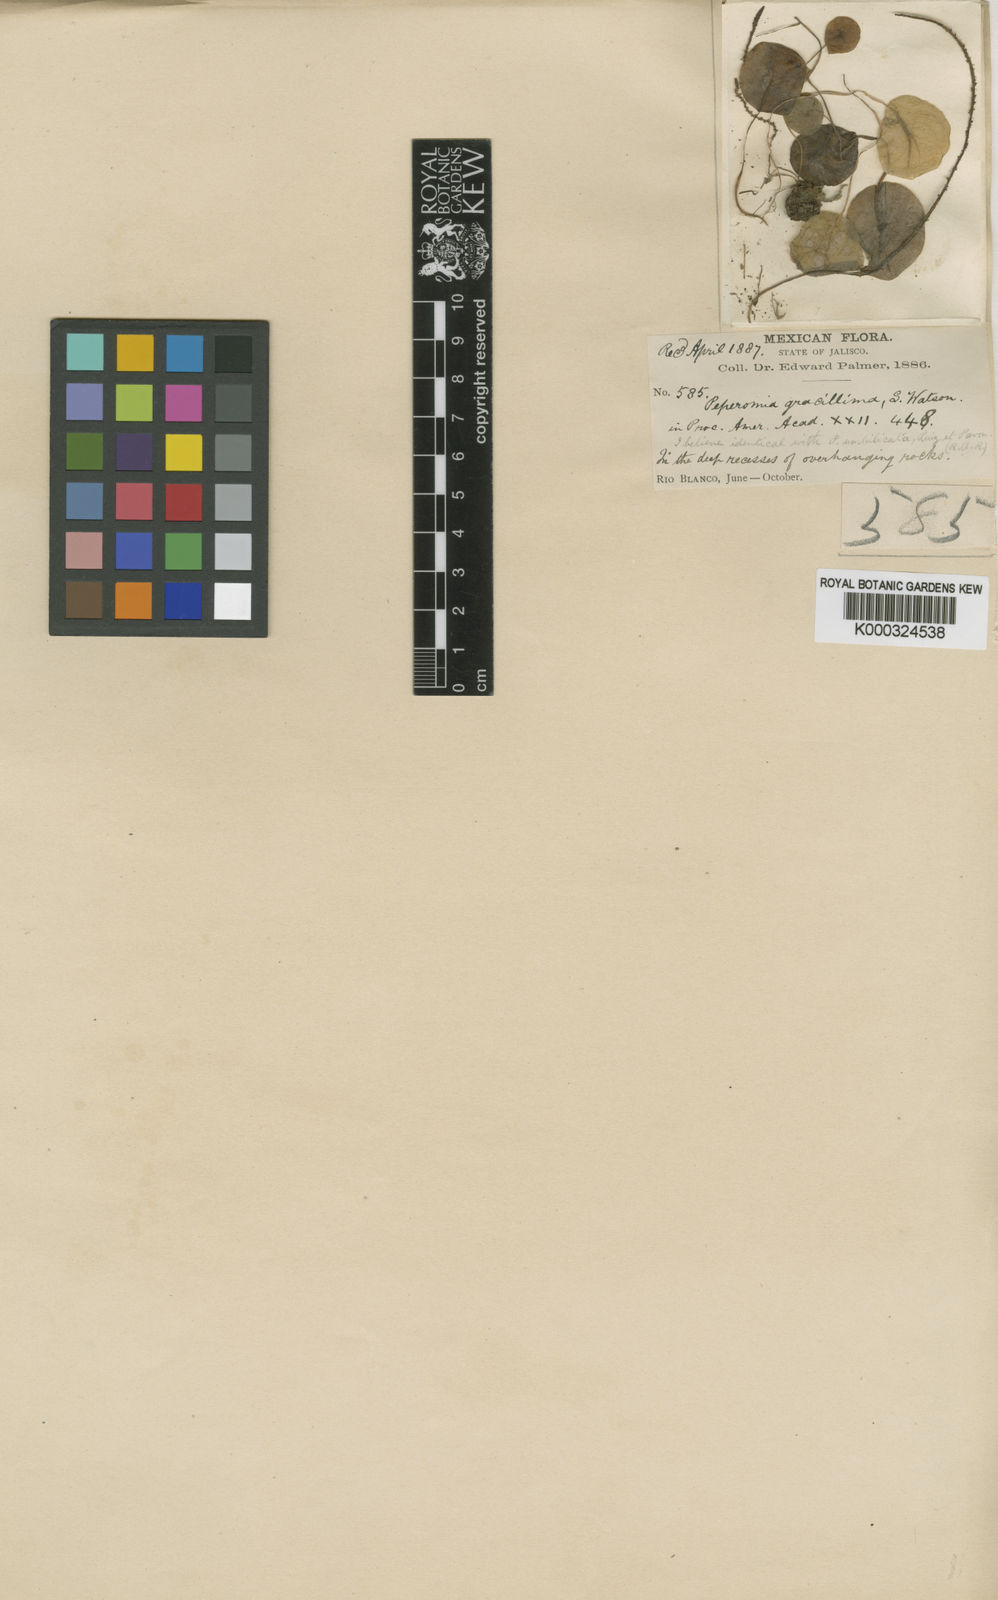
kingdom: Plantae
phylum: Tracheophyta
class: Magnoliopsida
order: Piperales
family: Piperaceae
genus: Peperomia
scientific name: Peperomia gracillima
